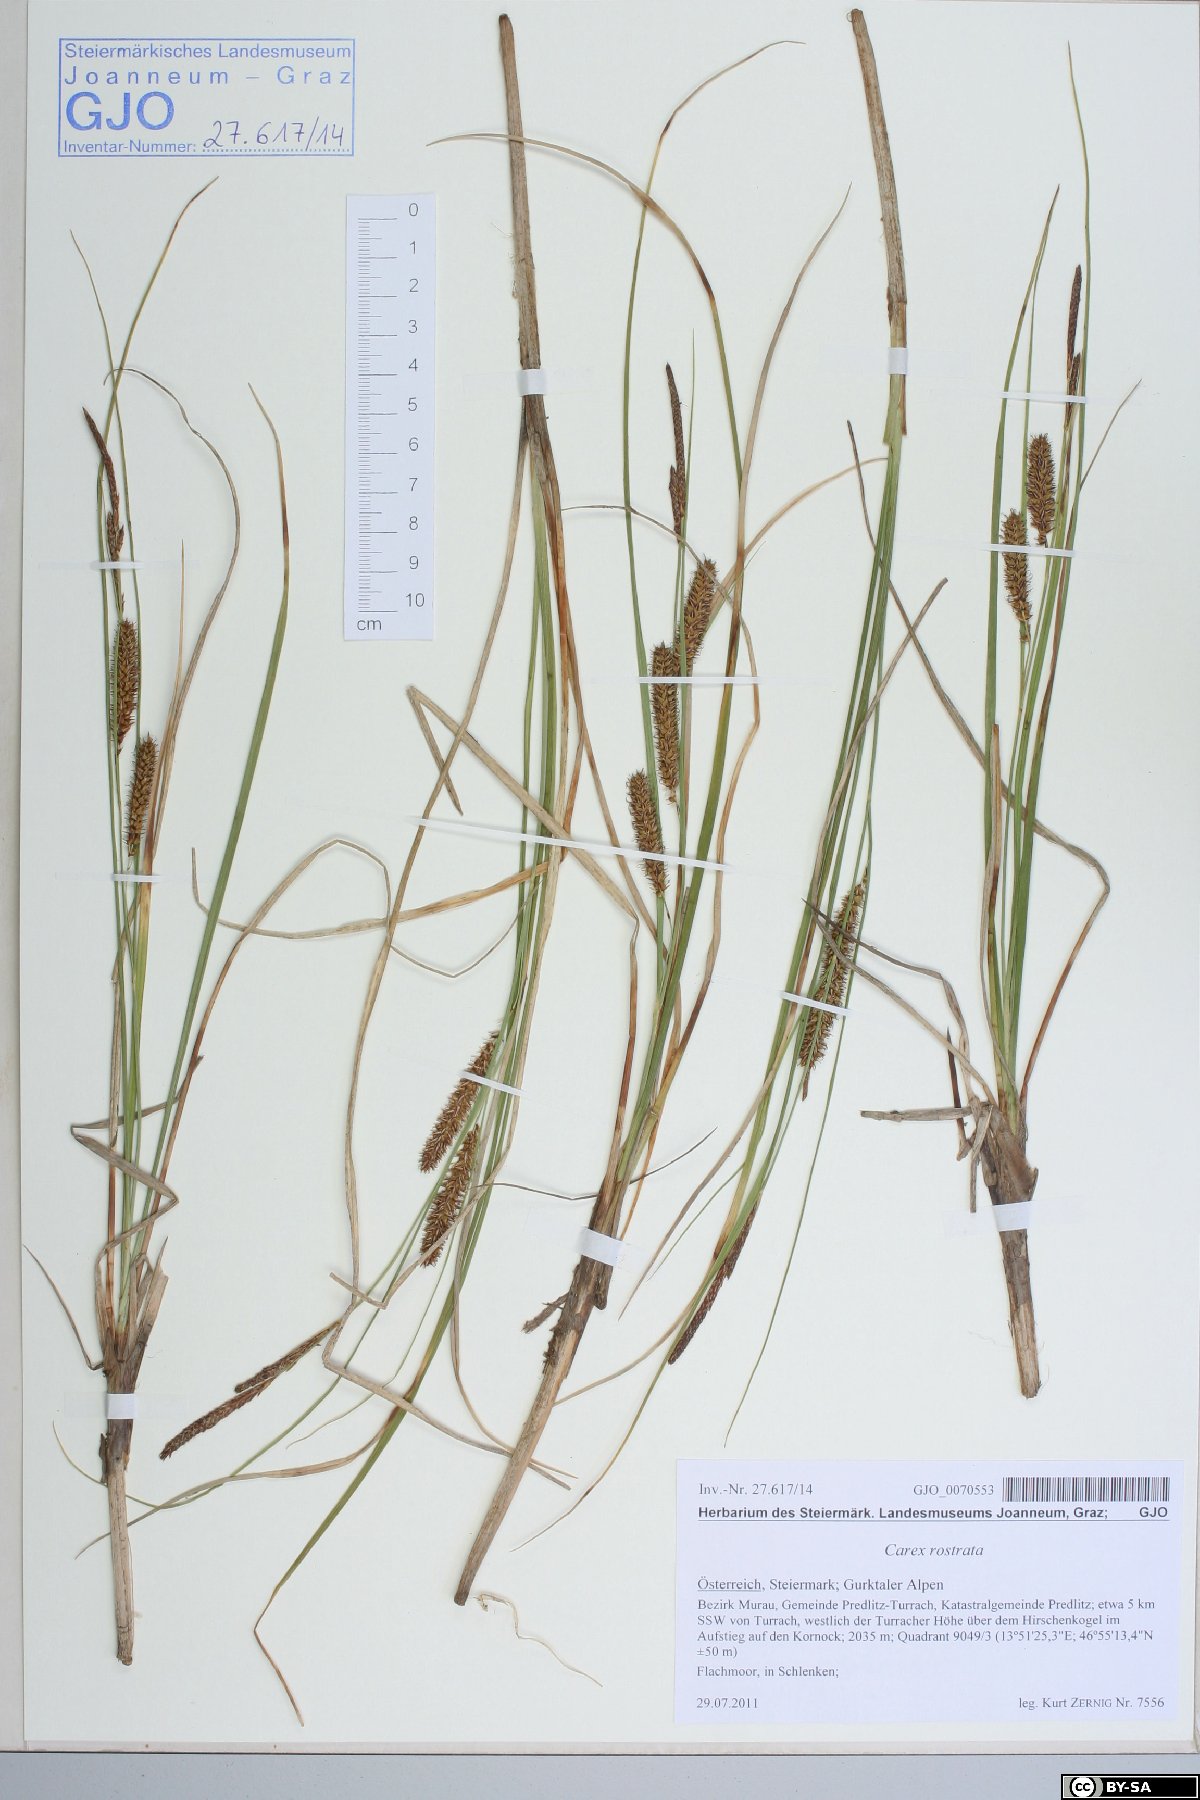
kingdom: Plantae
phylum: Tracheophyta
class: Liliopsida
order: Poales
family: Cyperaceae
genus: Carex
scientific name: Carex rostrata
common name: Bottle sedge
